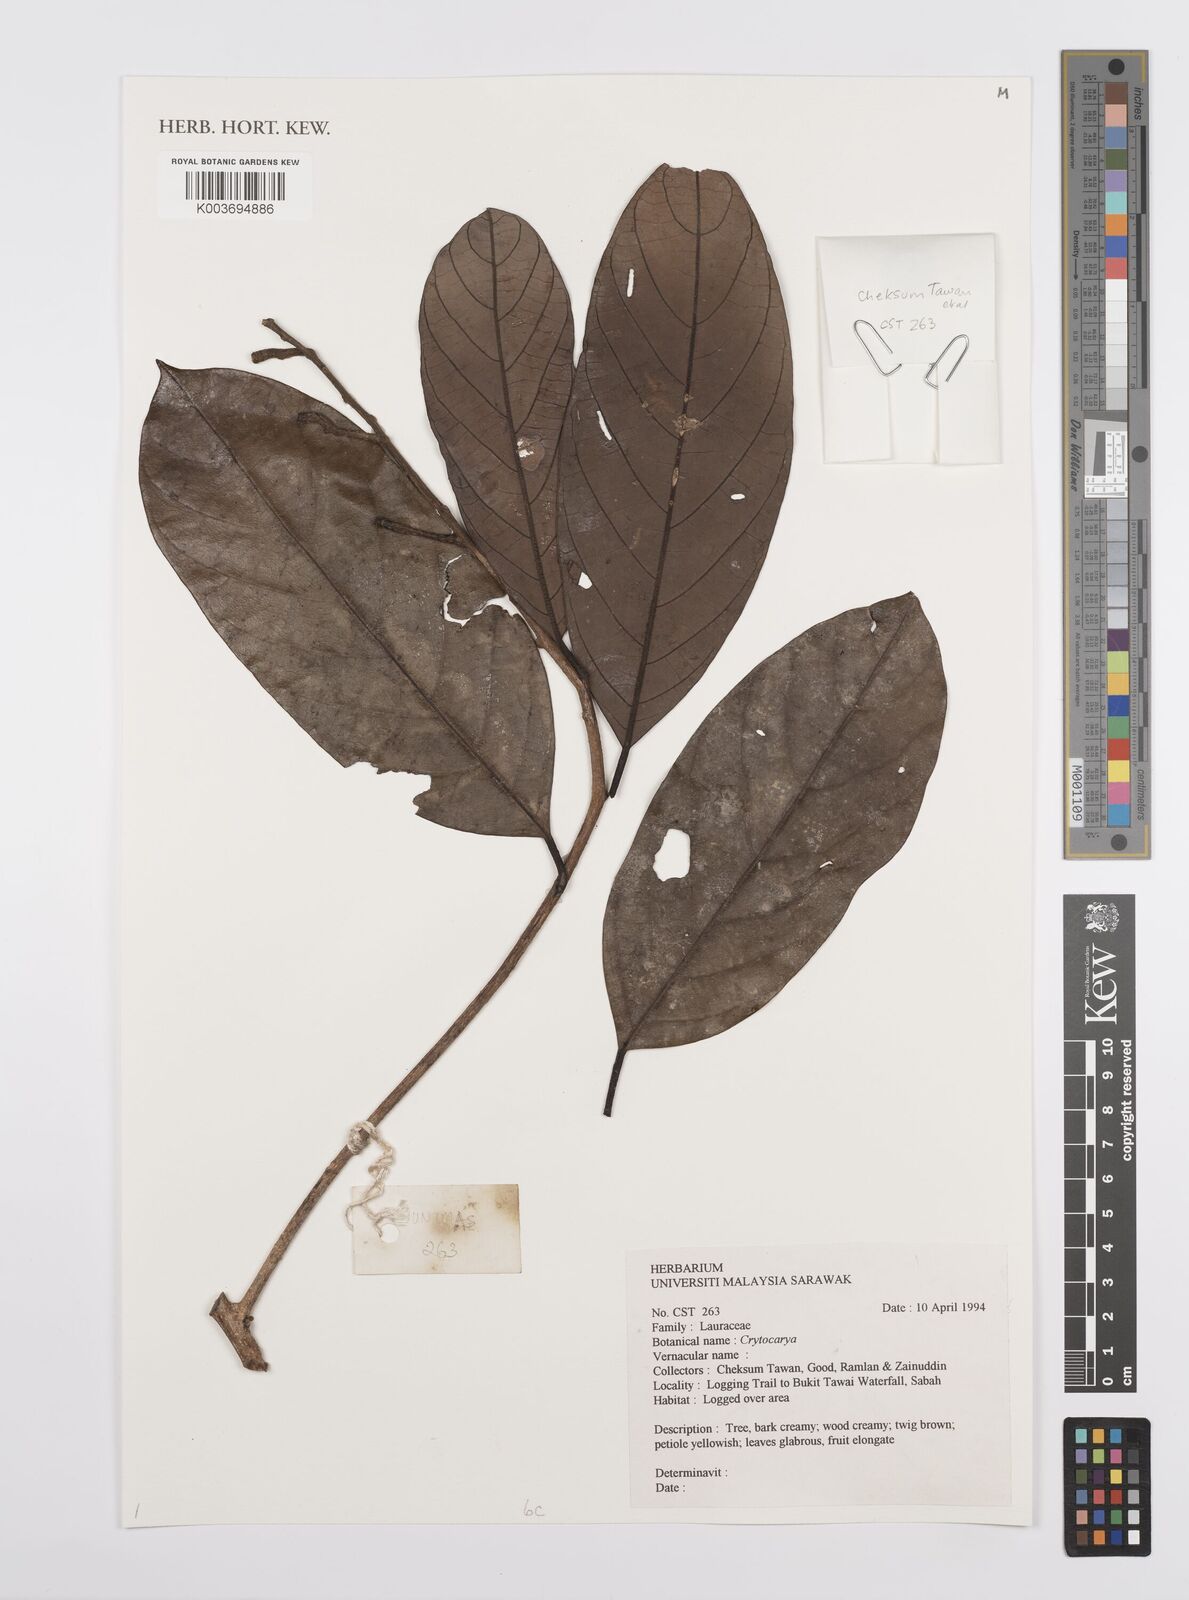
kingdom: Plantae
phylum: Tracheophyta
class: Magnoliopsida
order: Laurales
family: Lauraceae
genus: Cryptocarya
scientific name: Cryptocarya
